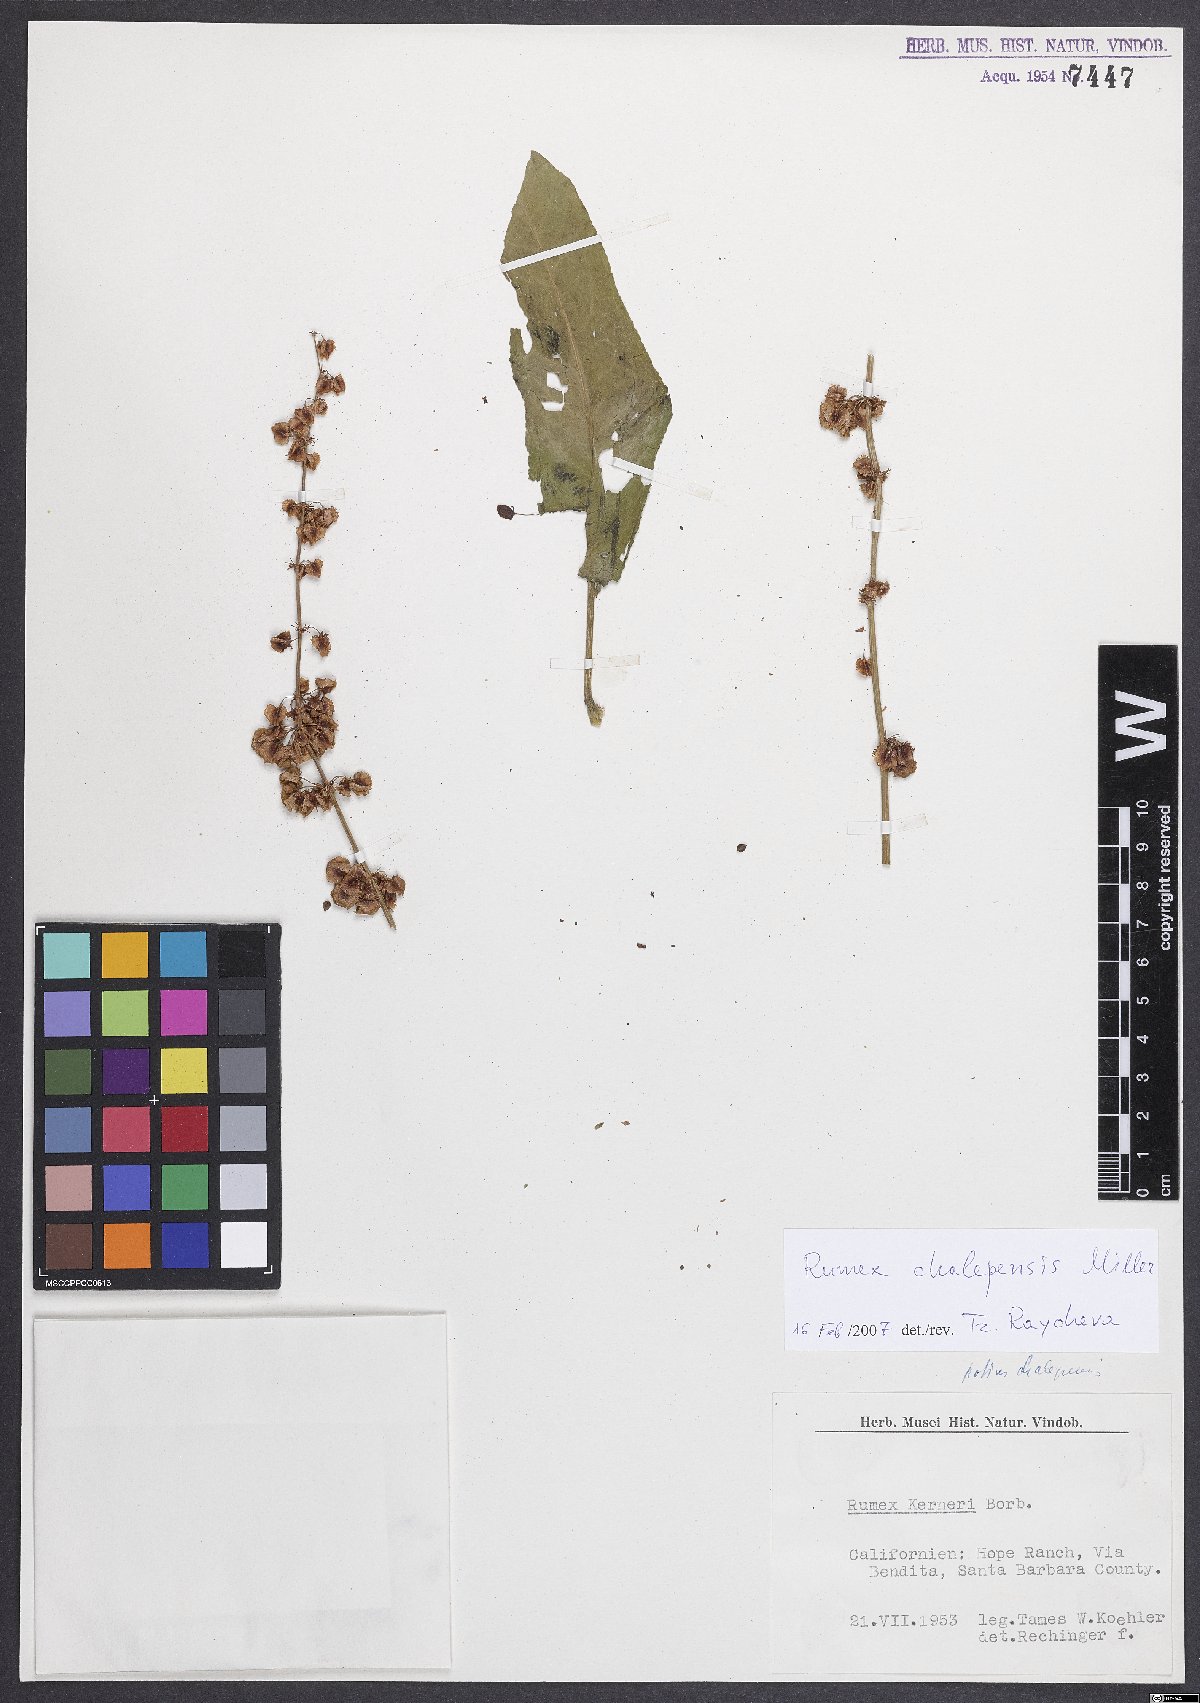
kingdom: Plantae
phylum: Tracheophyta
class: Magnoliopsida
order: Caryophyllales
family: Polygonaceae
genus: Rumex
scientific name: Rumex chalepensis
